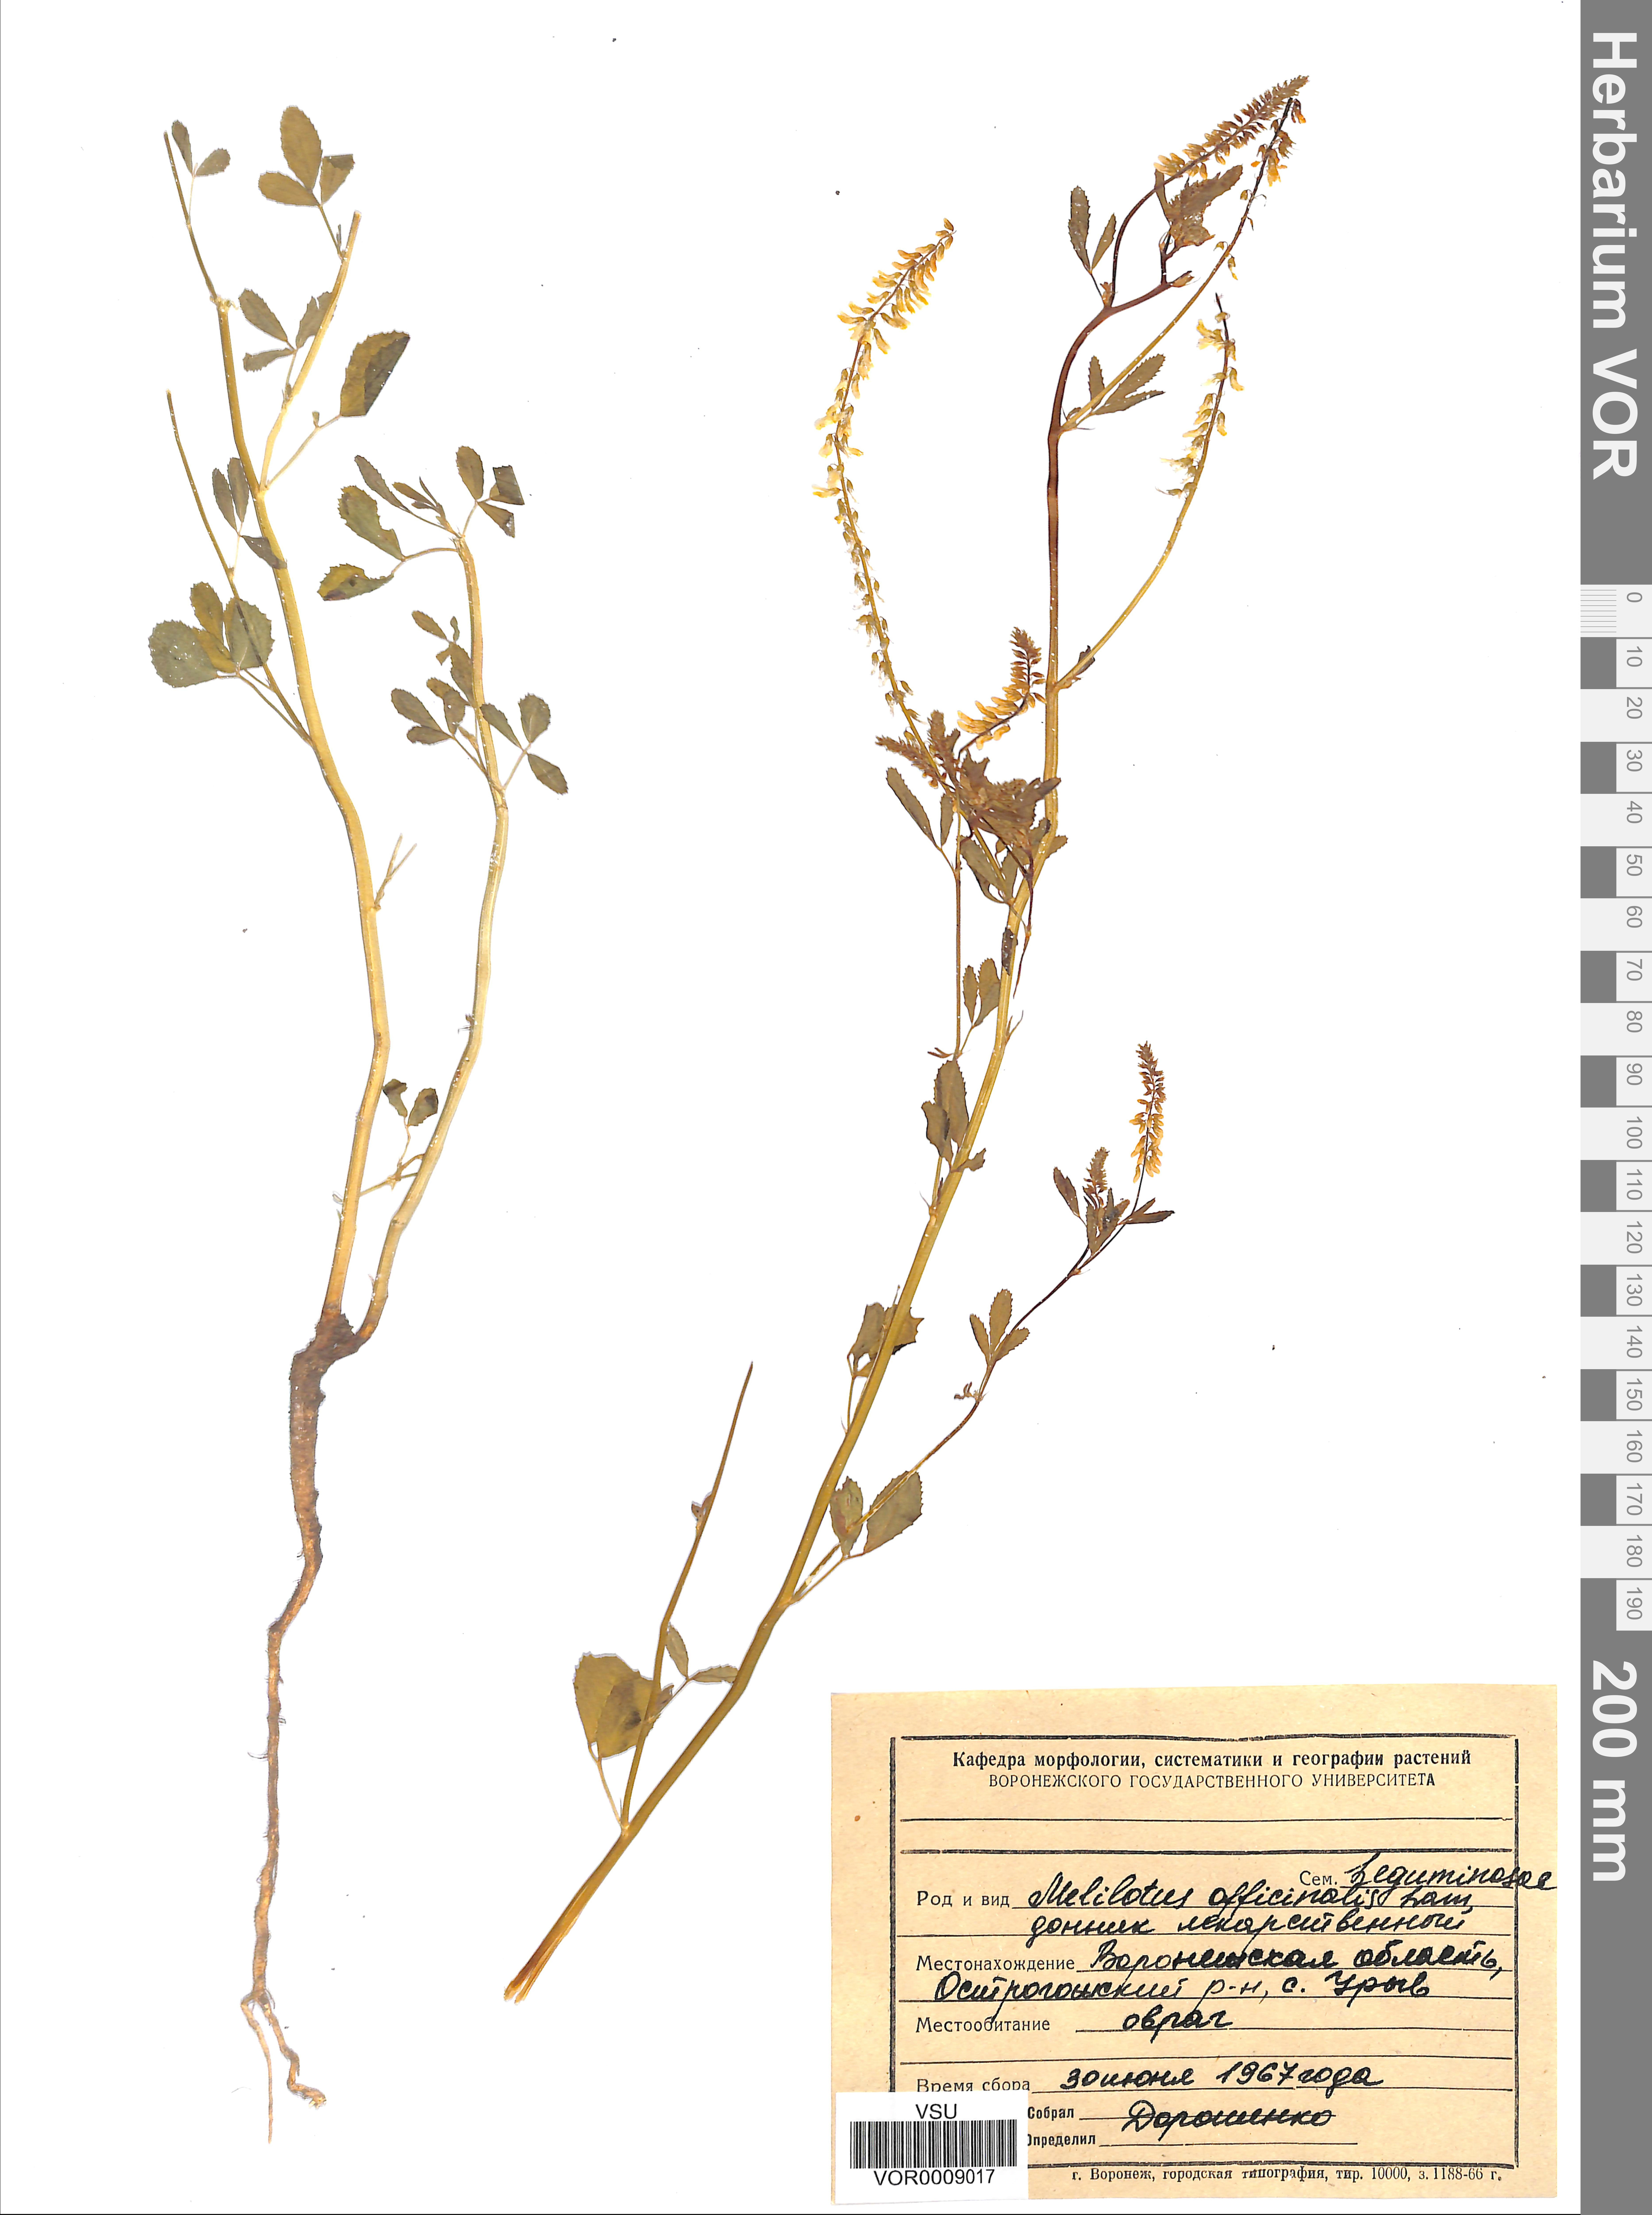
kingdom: Plantae
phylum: Tracheophyta
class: Magnoliopsida
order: Fabales
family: Fabaceae
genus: Melilotus
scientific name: Melilotus officinalis
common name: Sweetclover
